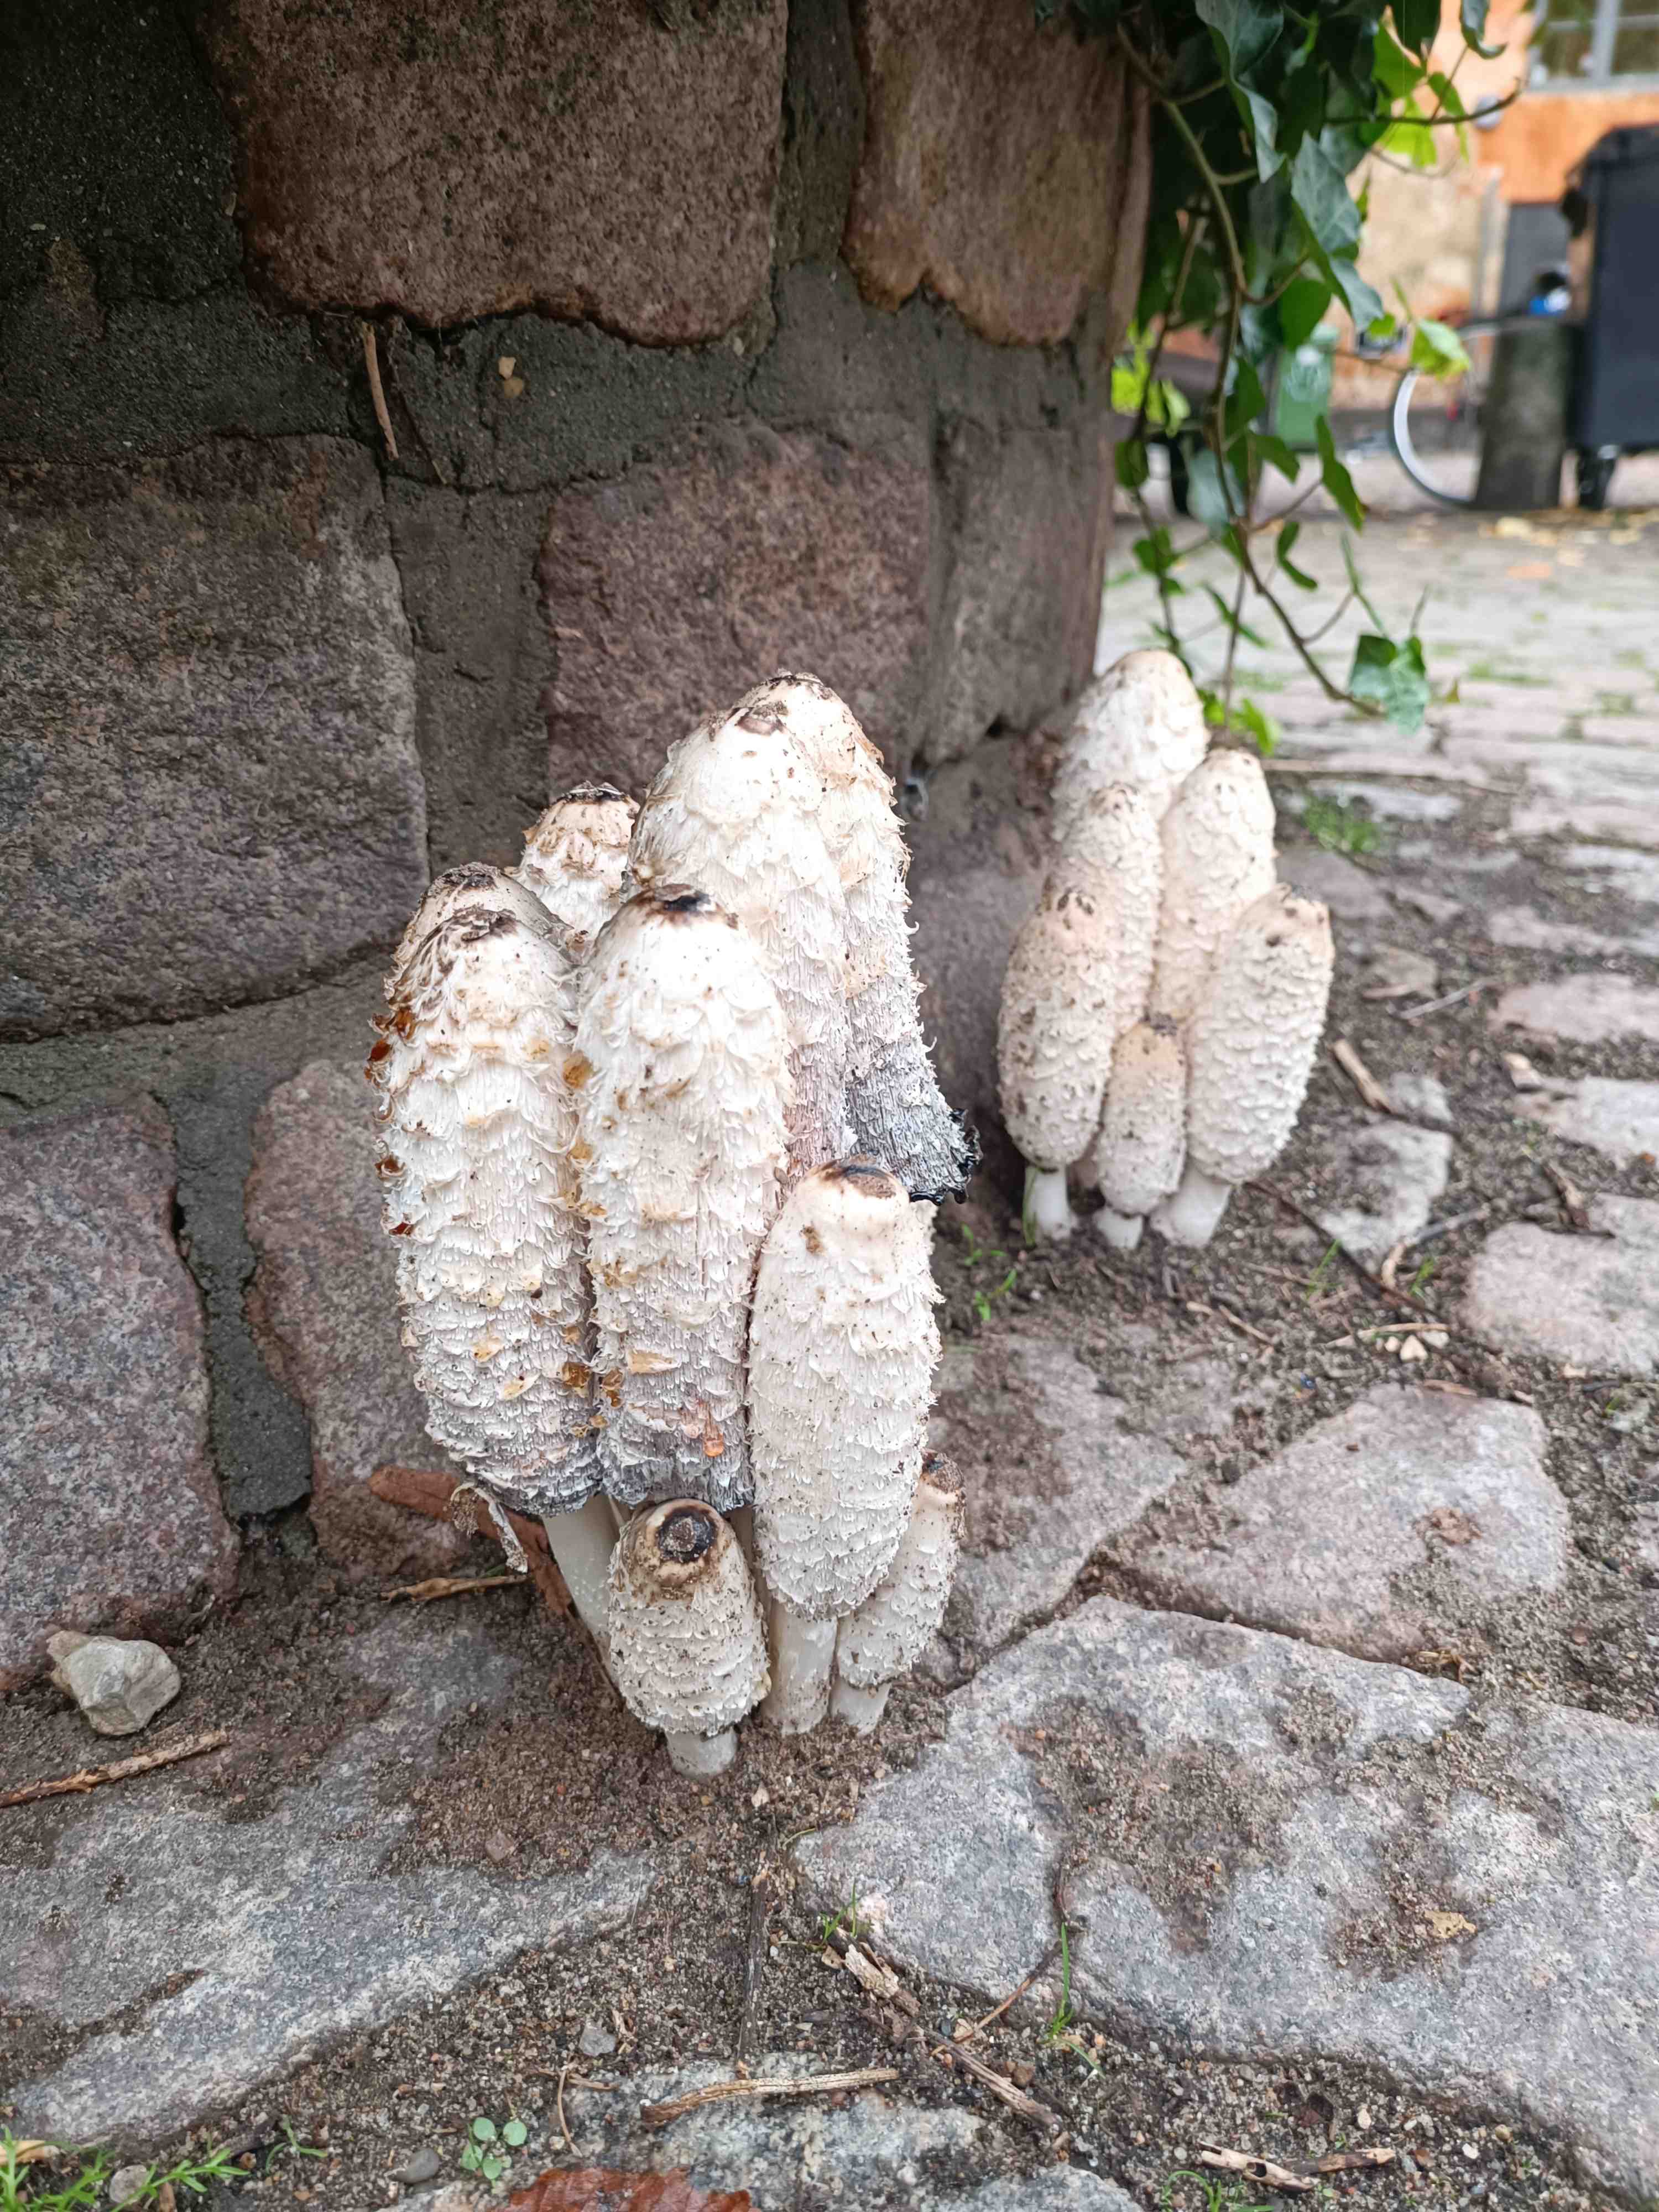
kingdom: Fungi
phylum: Basidiomycota
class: Agaricomycetes
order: Agaricales
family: Agaricaceae
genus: Coprinus
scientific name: Coprinus comatus
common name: stor parykhat
